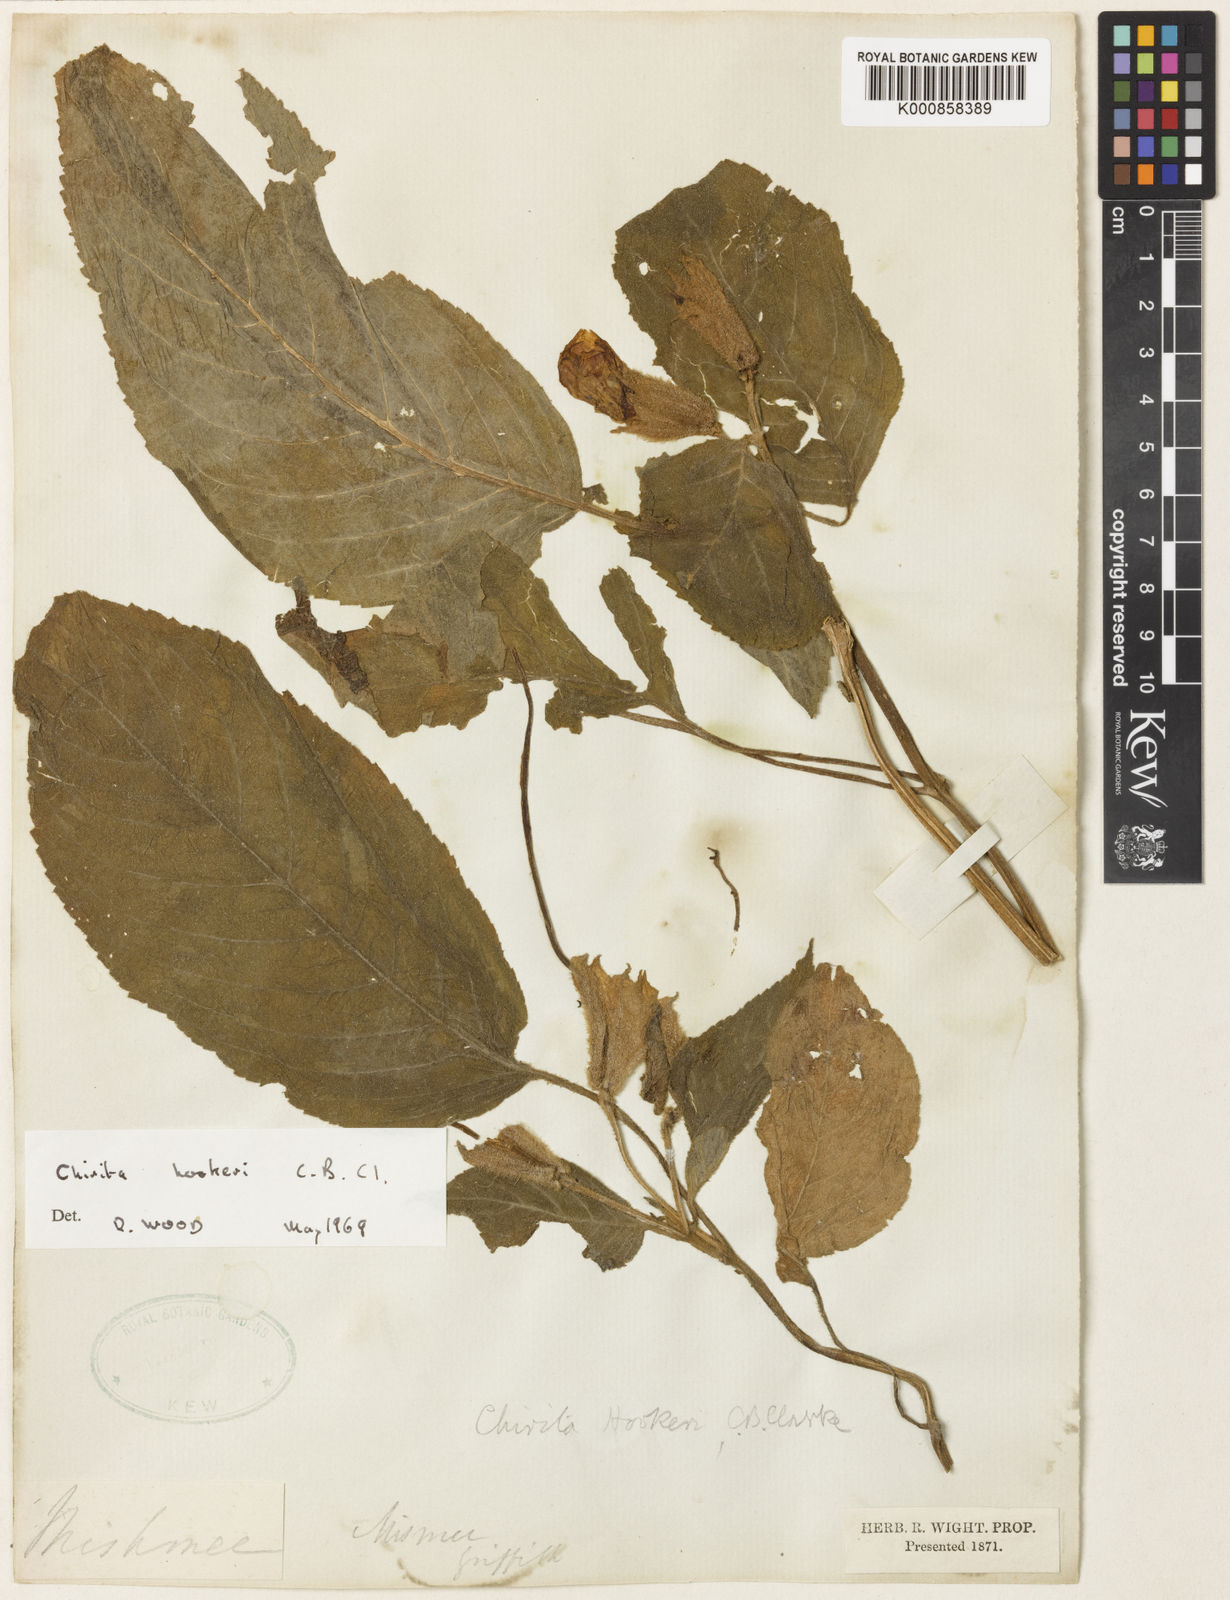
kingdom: Plantae
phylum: Tracheophyta
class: Magnoliopsida
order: Lamiales
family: Gesneriaceae
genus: Henckelia
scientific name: Henckelia hookeri
